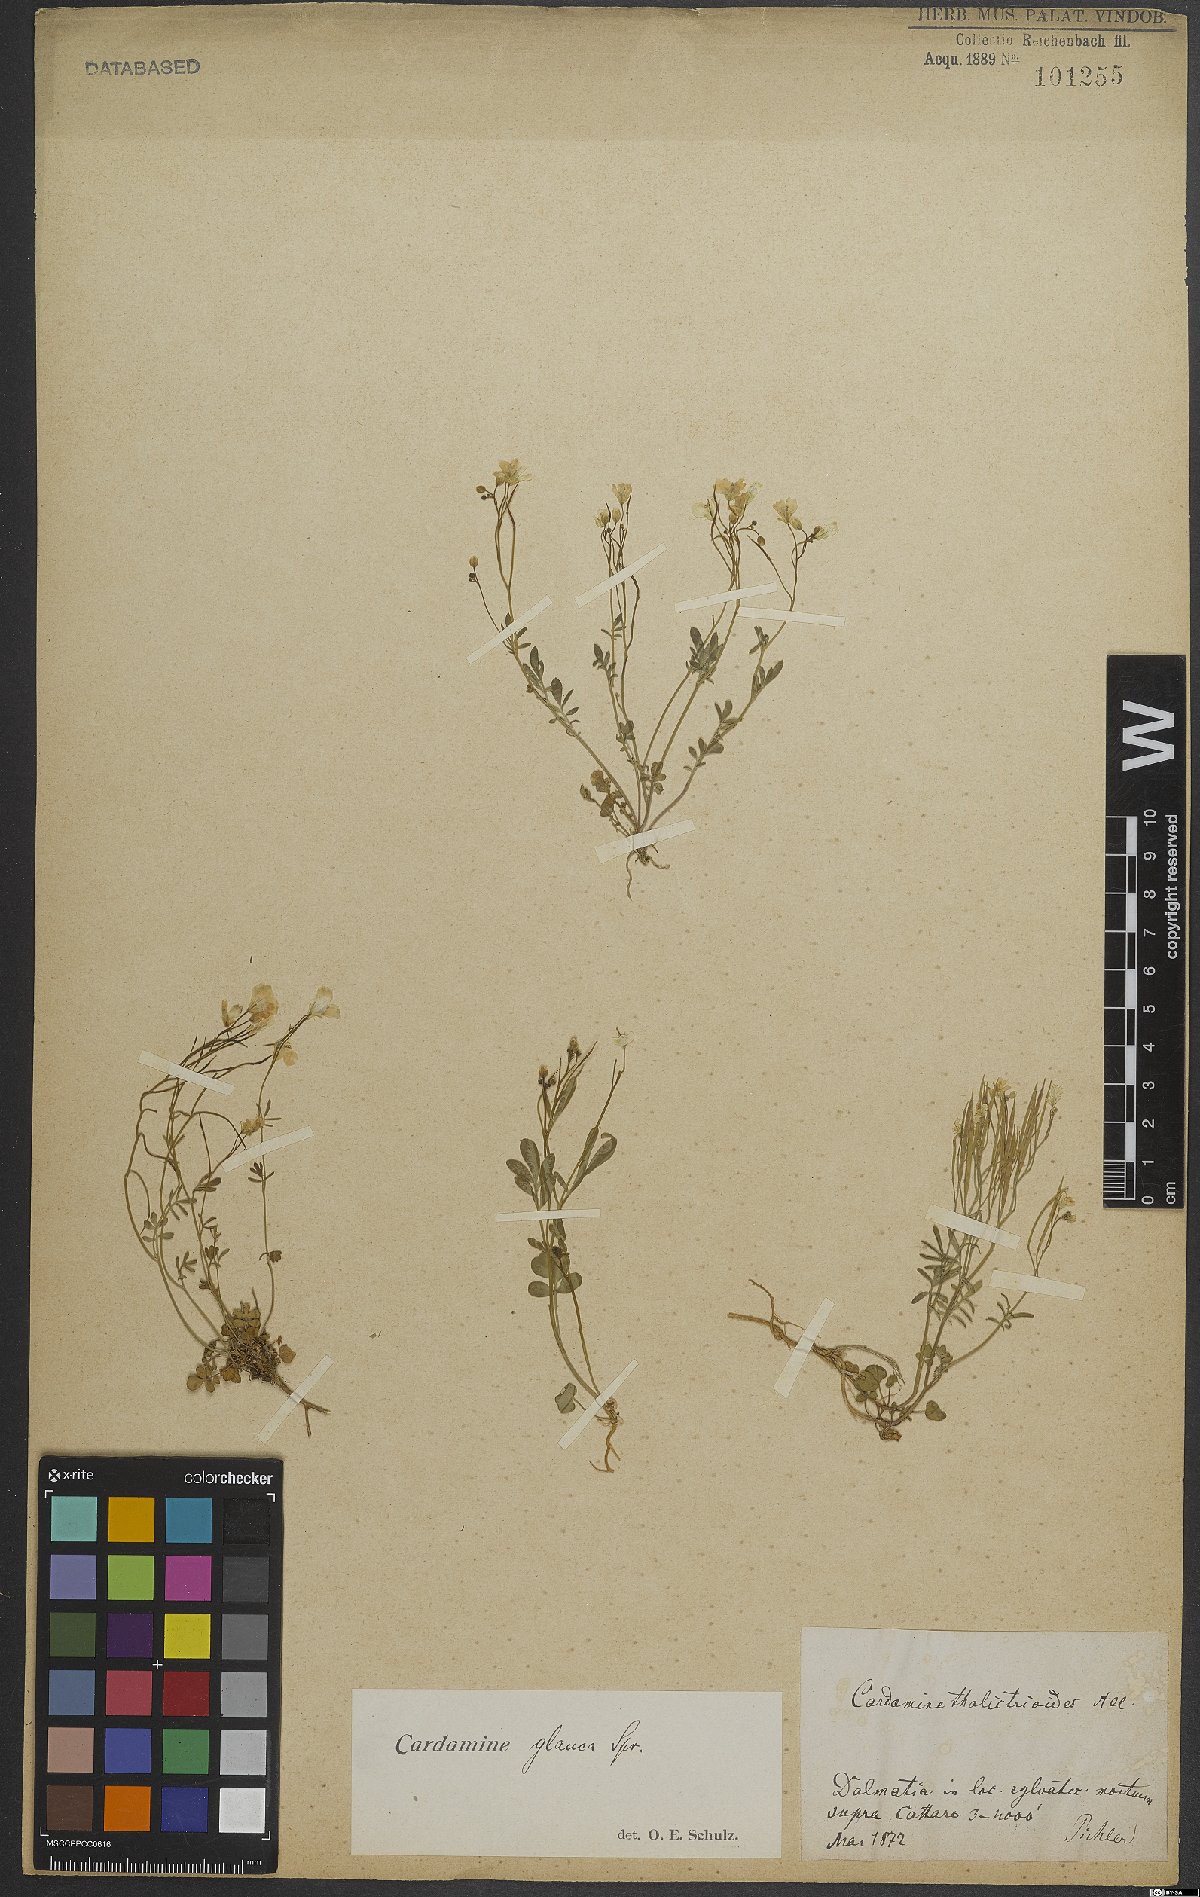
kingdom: Plantae
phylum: Tracheophyta
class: Magnoliopsida
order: Brassicales
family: Brassicaceae
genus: Cardamine
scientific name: Cardamine glauca
